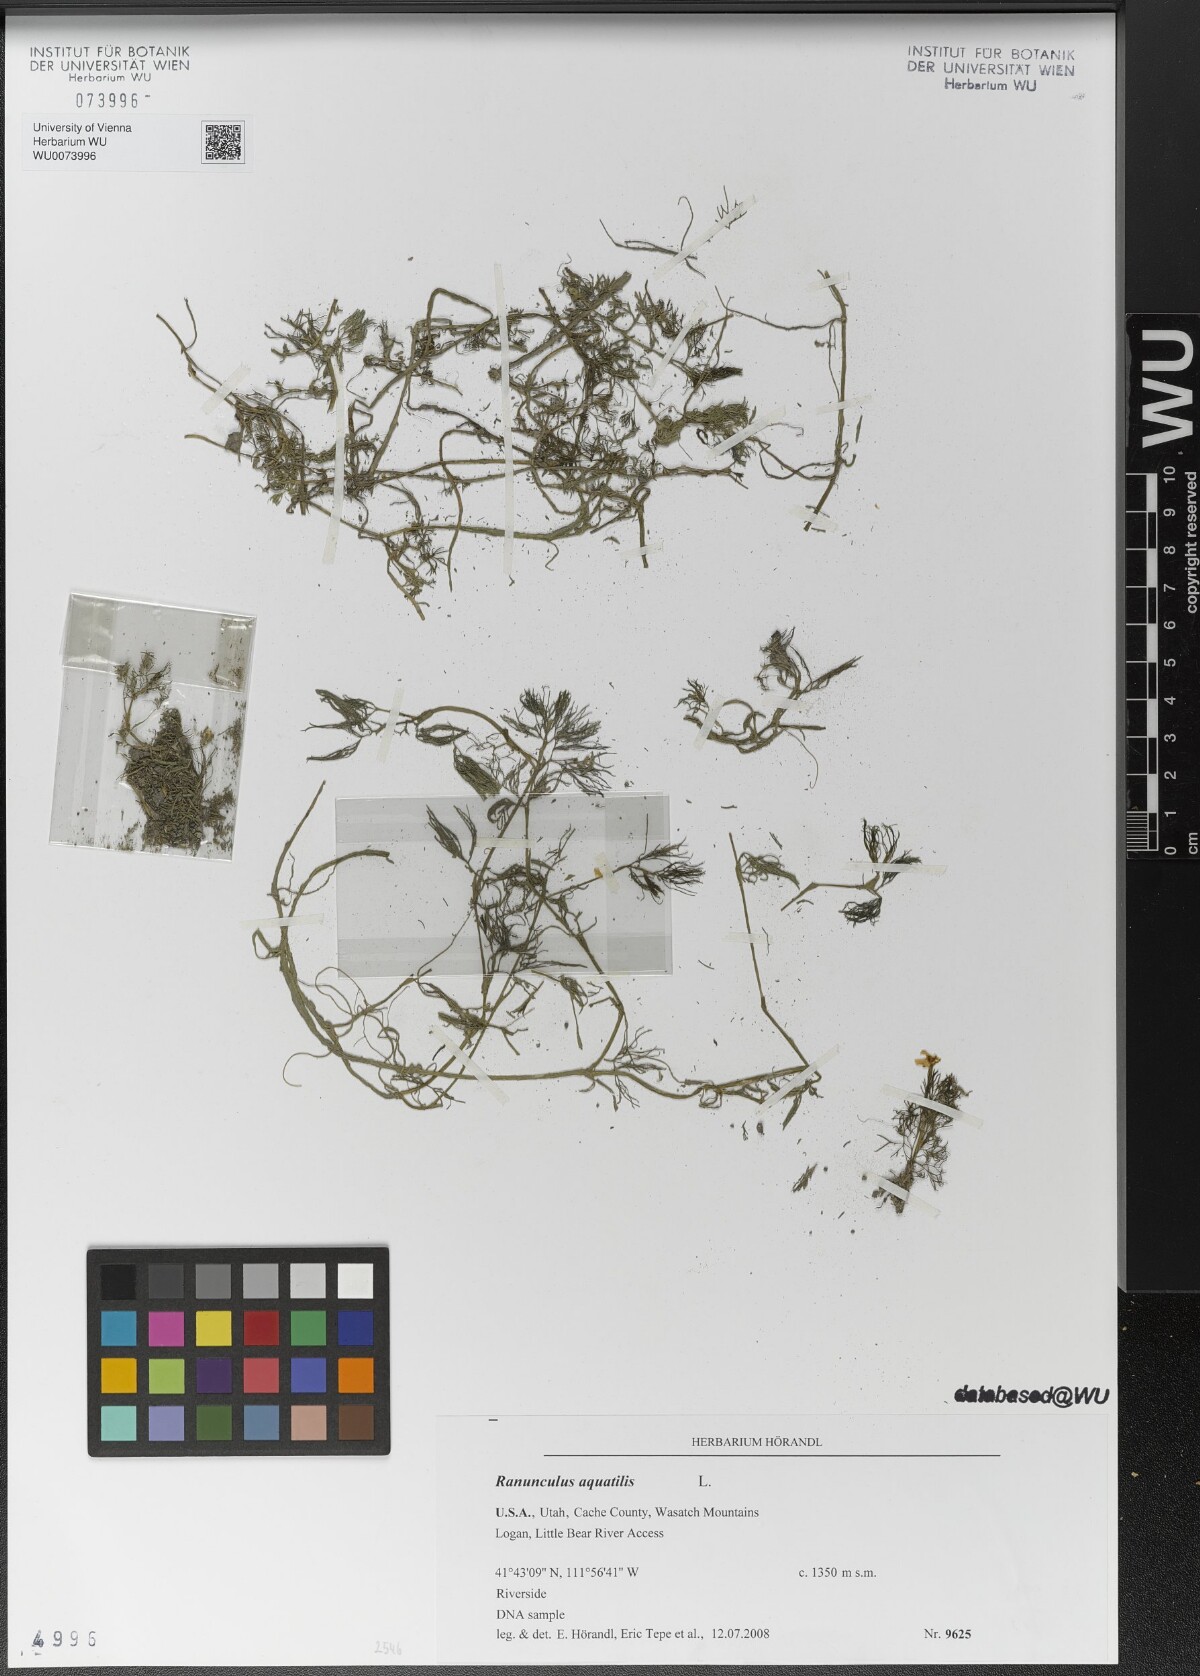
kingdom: Plantae
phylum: Tracheophyta
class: Magnoliopsida
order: Ranunculales
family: Ranunculaceae
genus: Ranunculus
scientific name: Ranunculus aquatilis
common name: Common water-crowfoot
